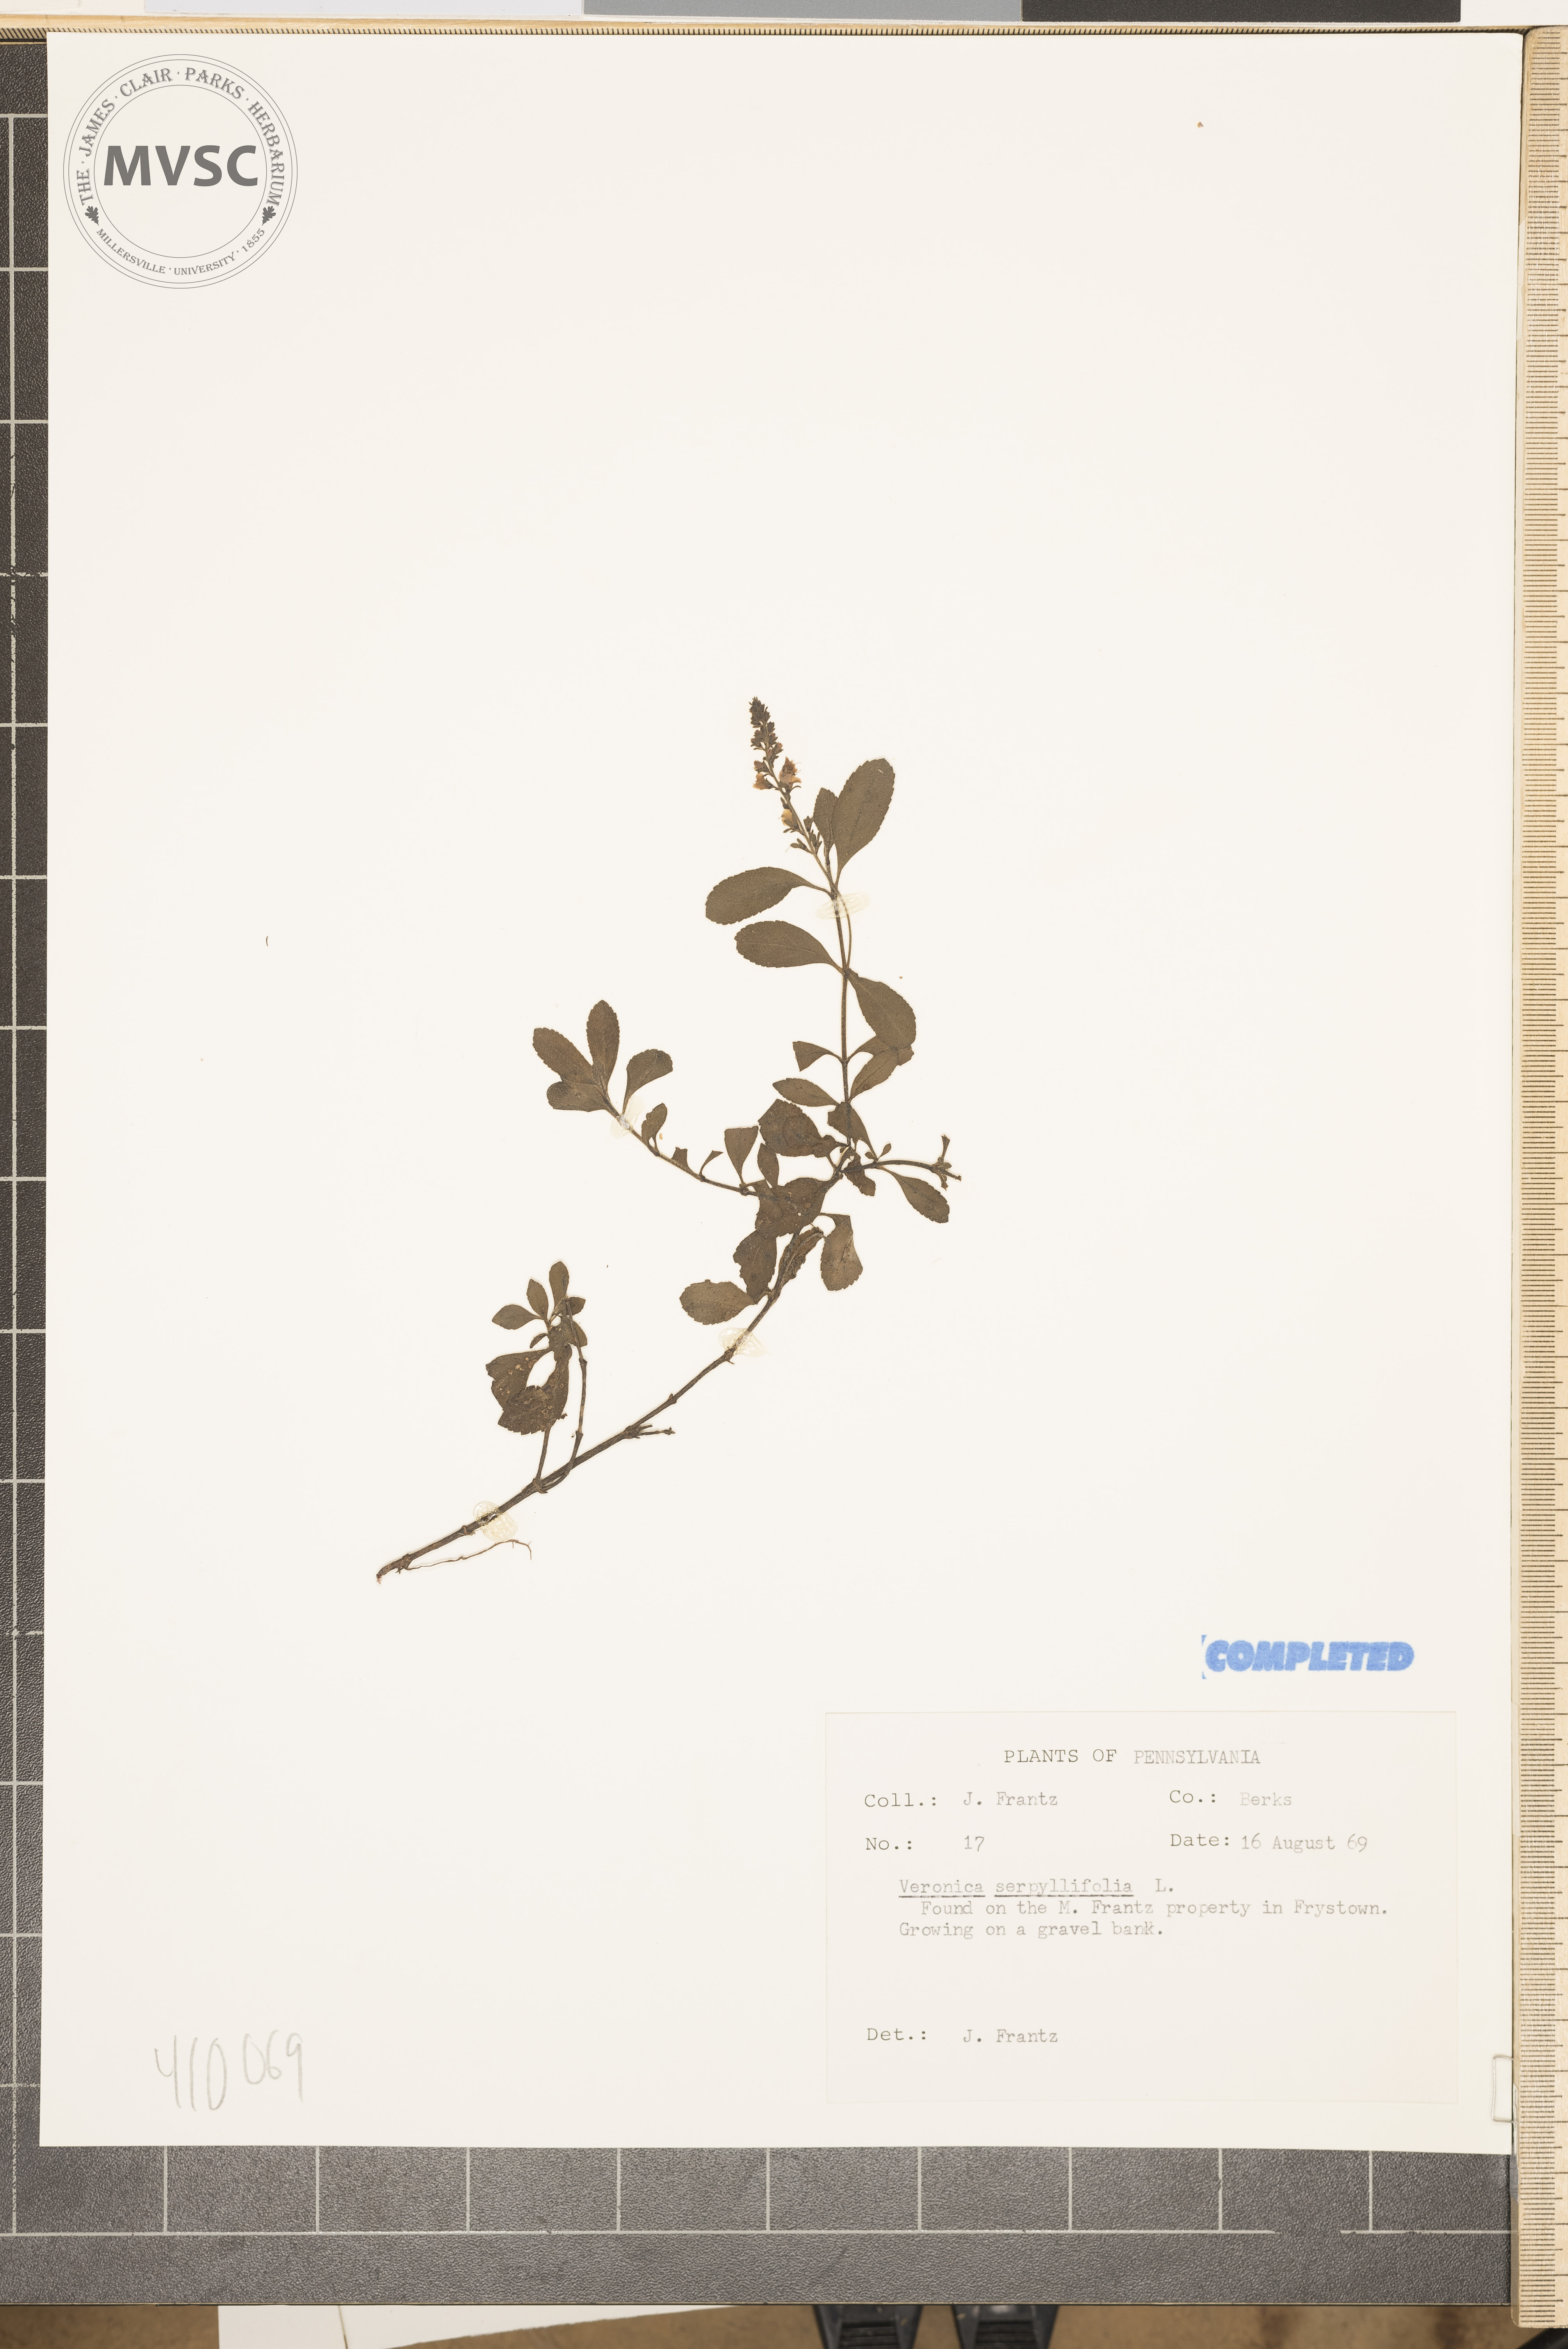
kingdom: Plantae
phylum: Tracheophyta
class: Magnoliopsida
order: Lamiales
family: Plantaginaceae
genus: Veronica
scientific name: Veronica serpyllifolia
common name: Thyme-leaved speedwell
